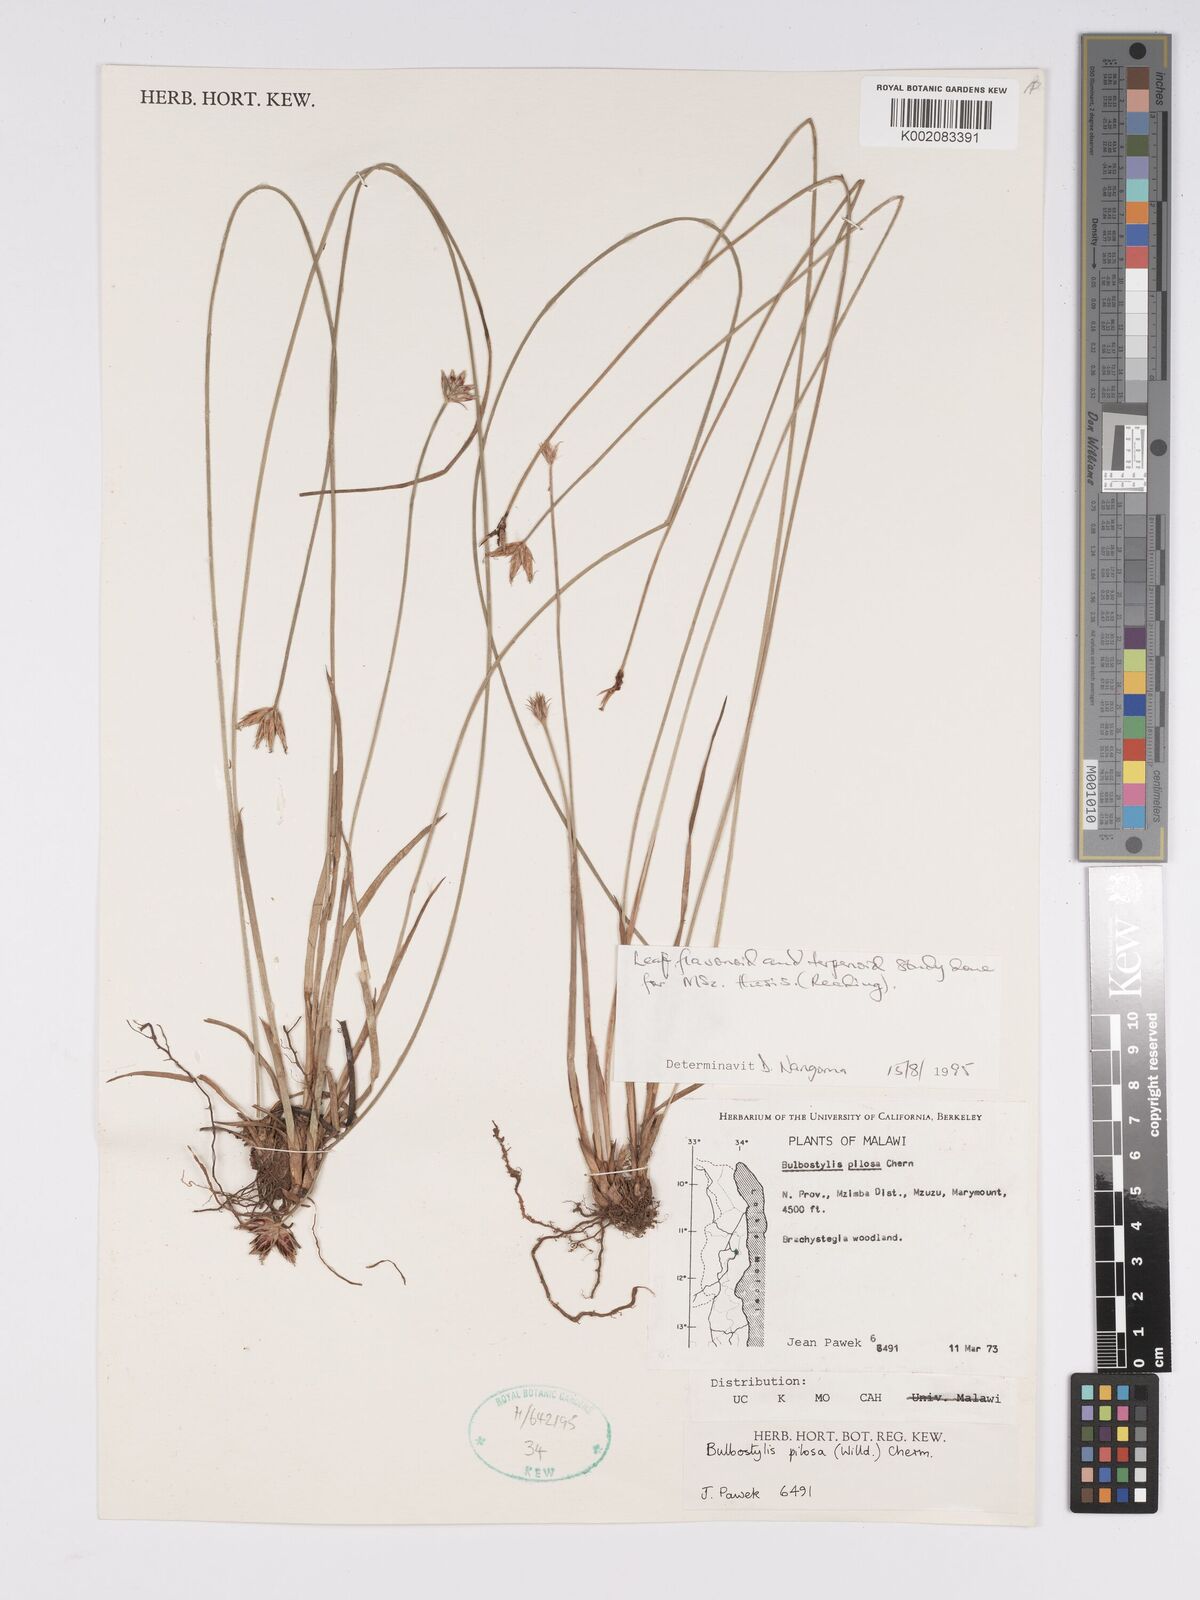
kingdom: Plantae
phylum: Tracheophyta
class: Liliopsida
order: Poales
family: Cyperaceae
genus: Bulbostylis
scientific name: Bulbostylis pilosa
